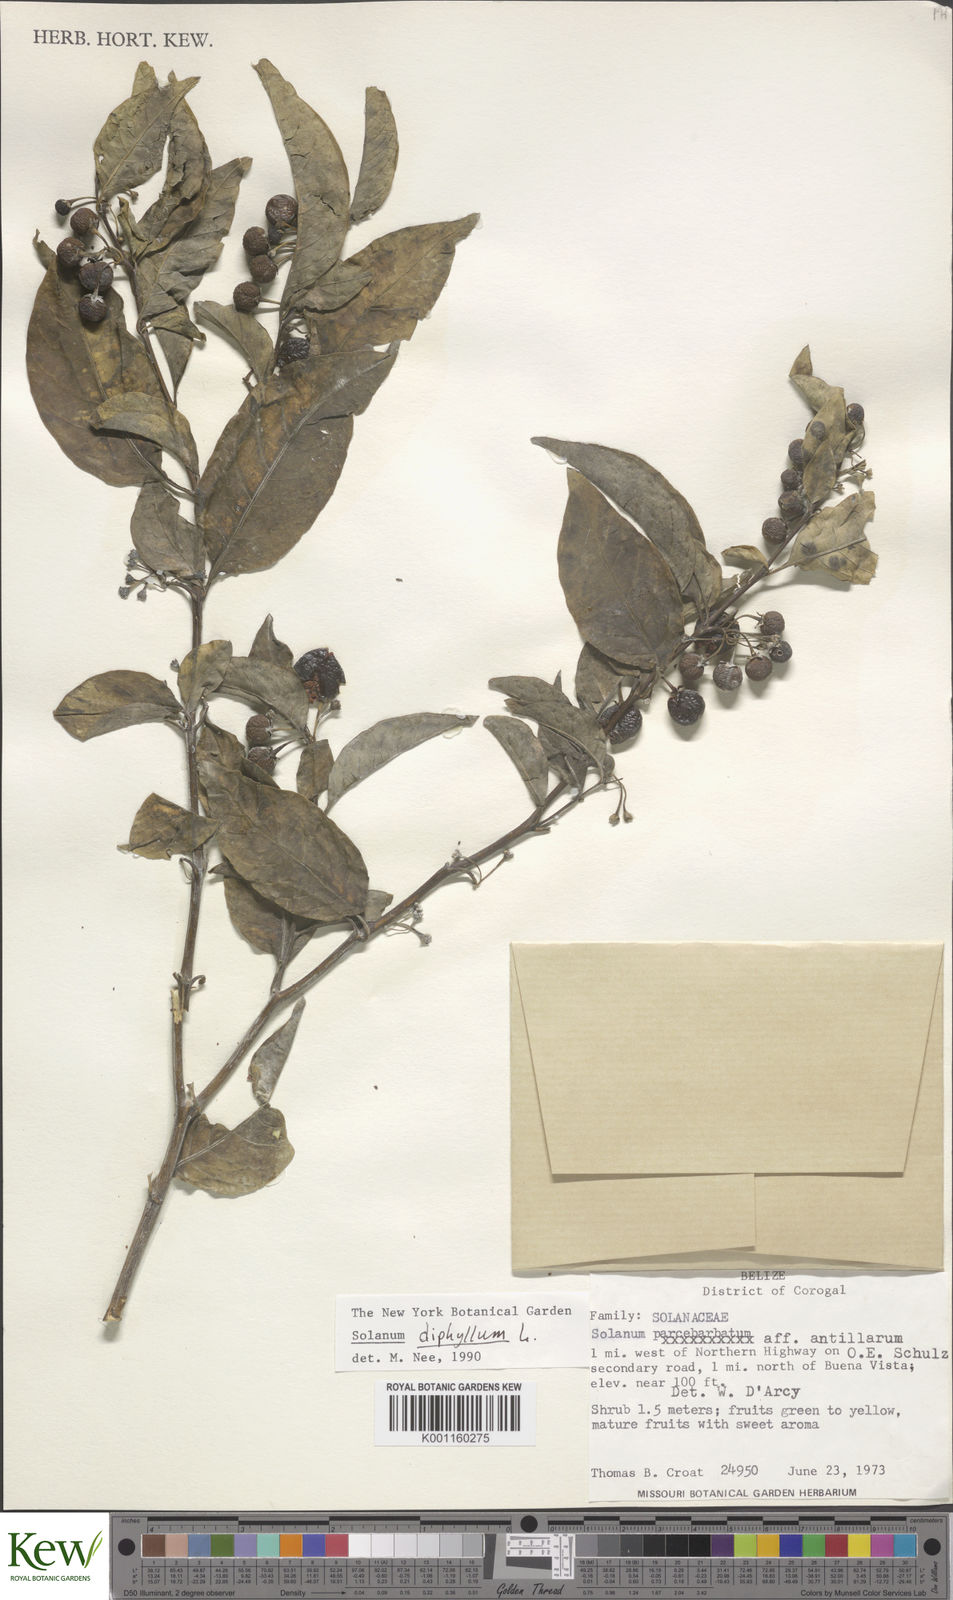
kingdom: Plantae
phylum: Tracheophyta
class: Magnoliopsida
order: Solanales
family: Solanaceae
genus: Solanum
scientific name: Solanum diphyllum
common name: Twoleaf nightshade
